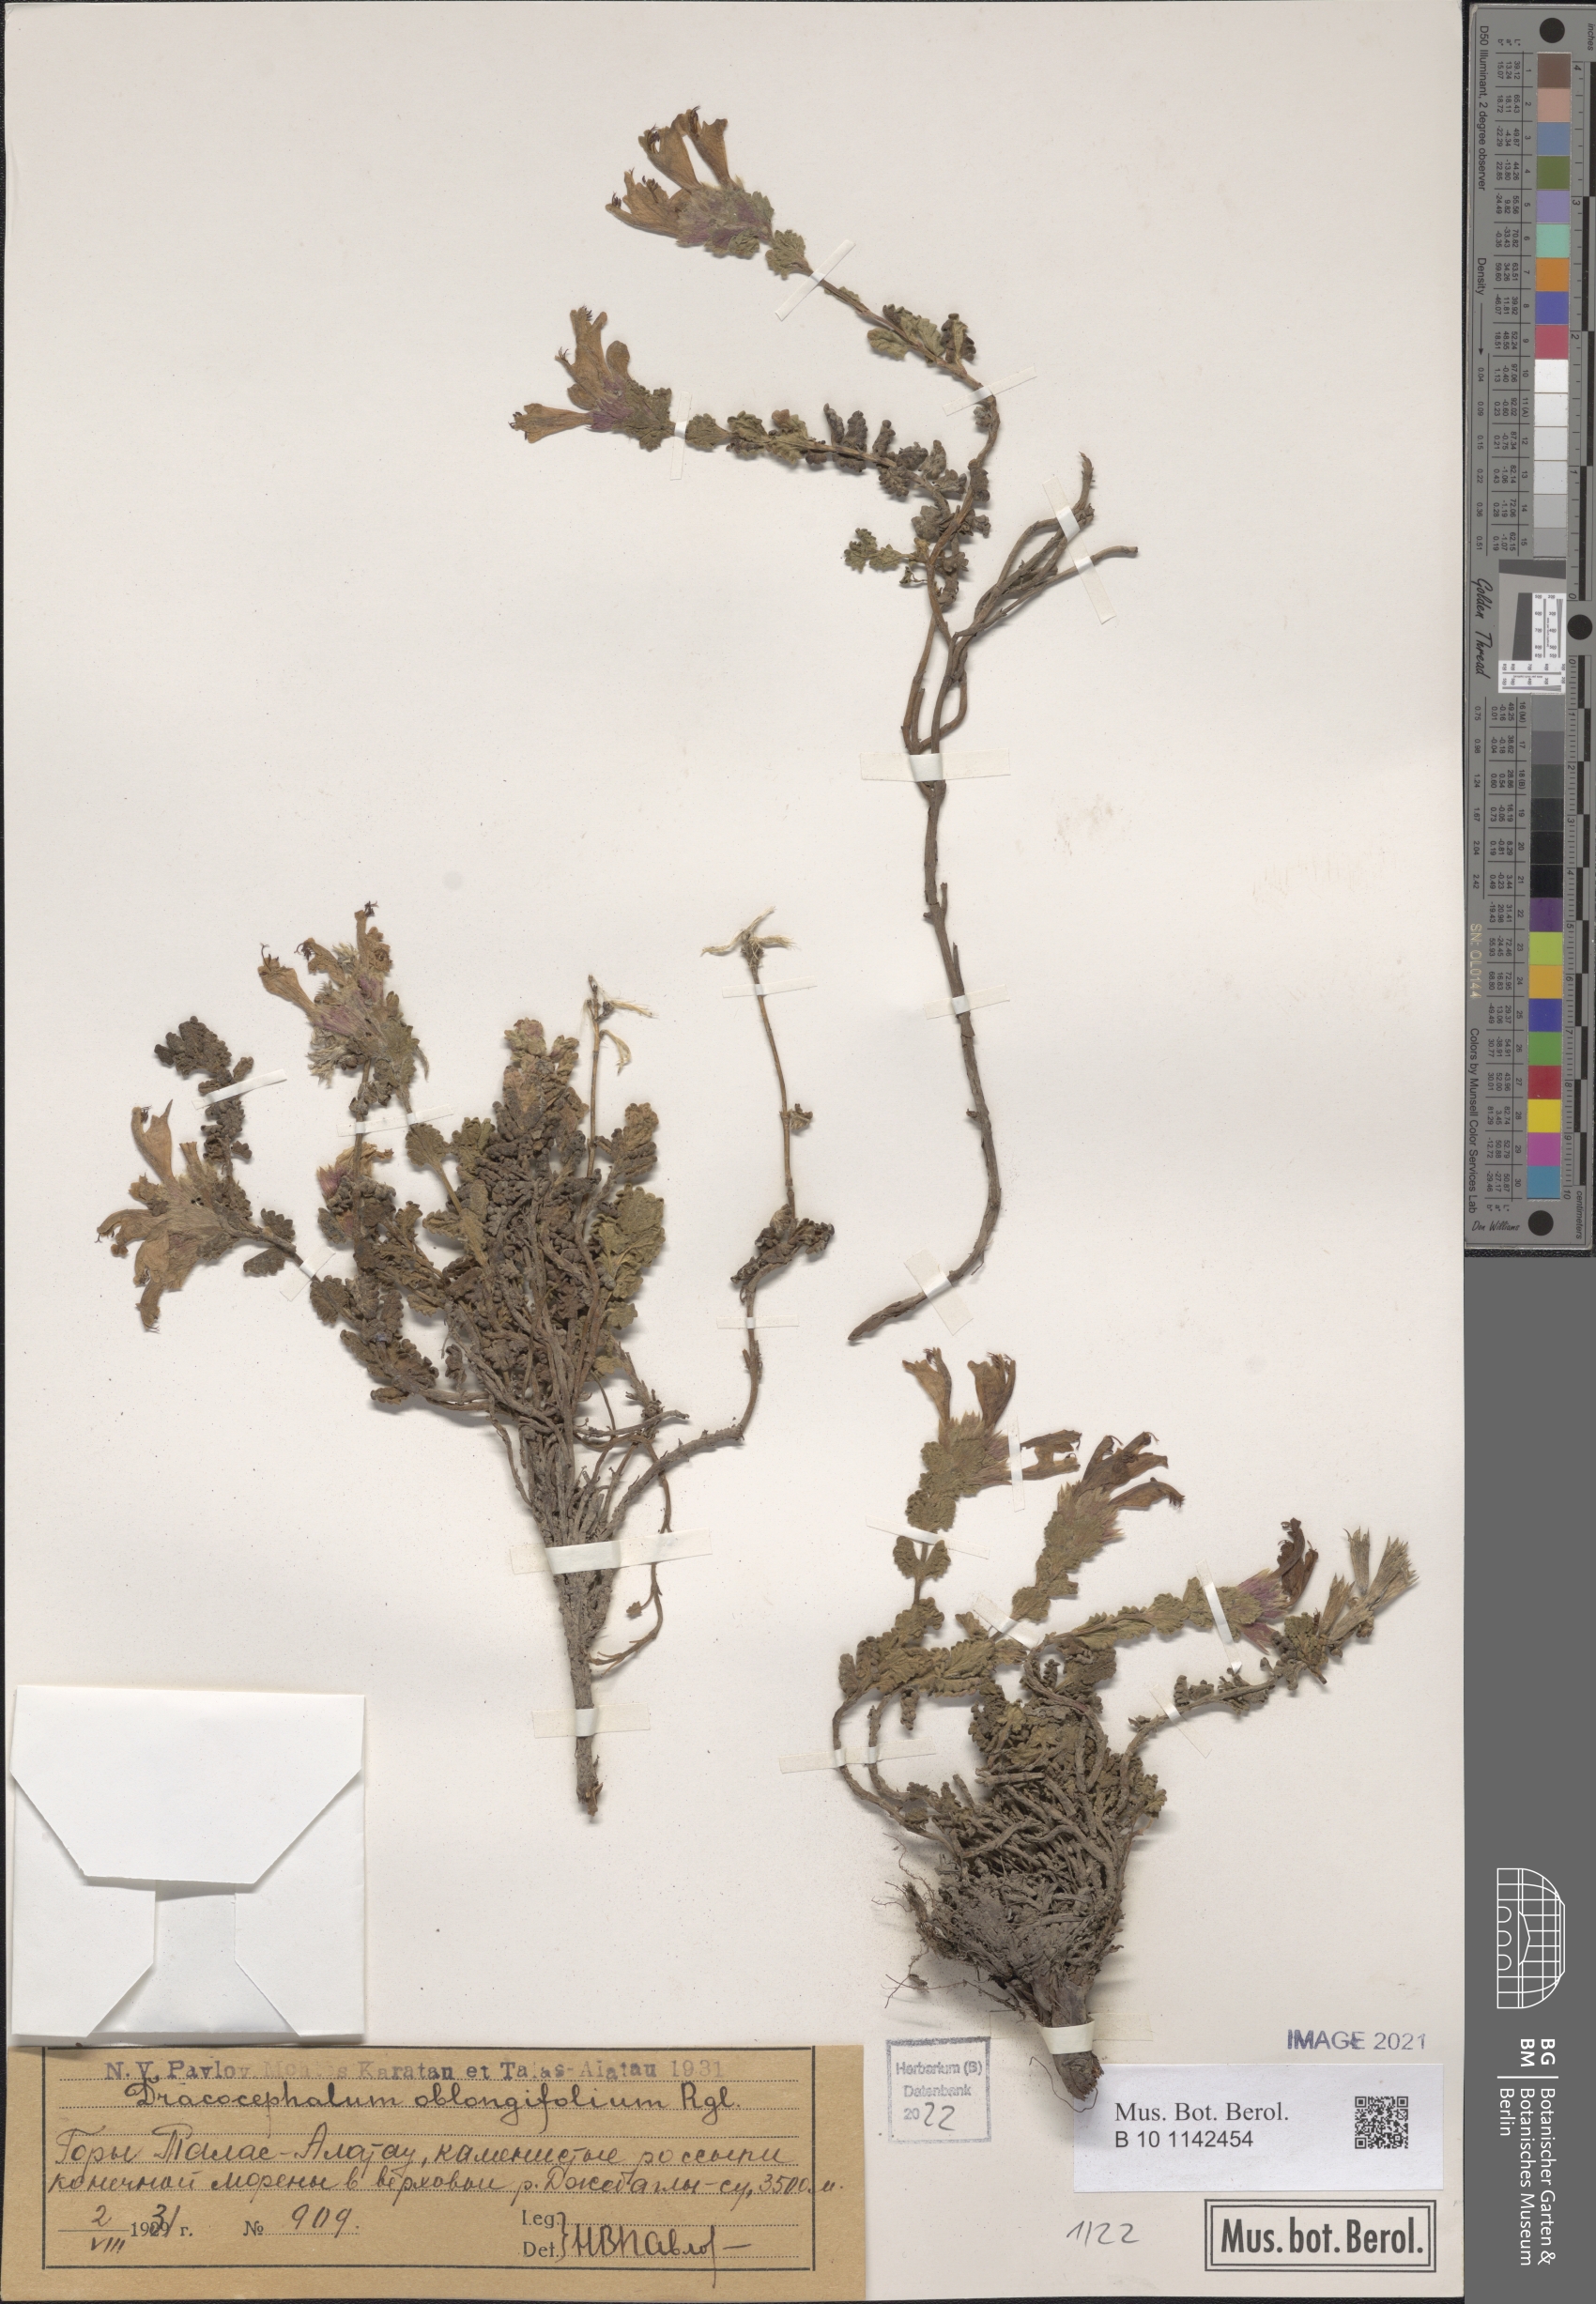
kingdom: Plantae
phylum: Tracheophyta
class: Magnoliopsida
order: Lamiales
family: Lamiaceae
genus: Dracocephalum
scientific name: Dracocephalum oblongifolium
